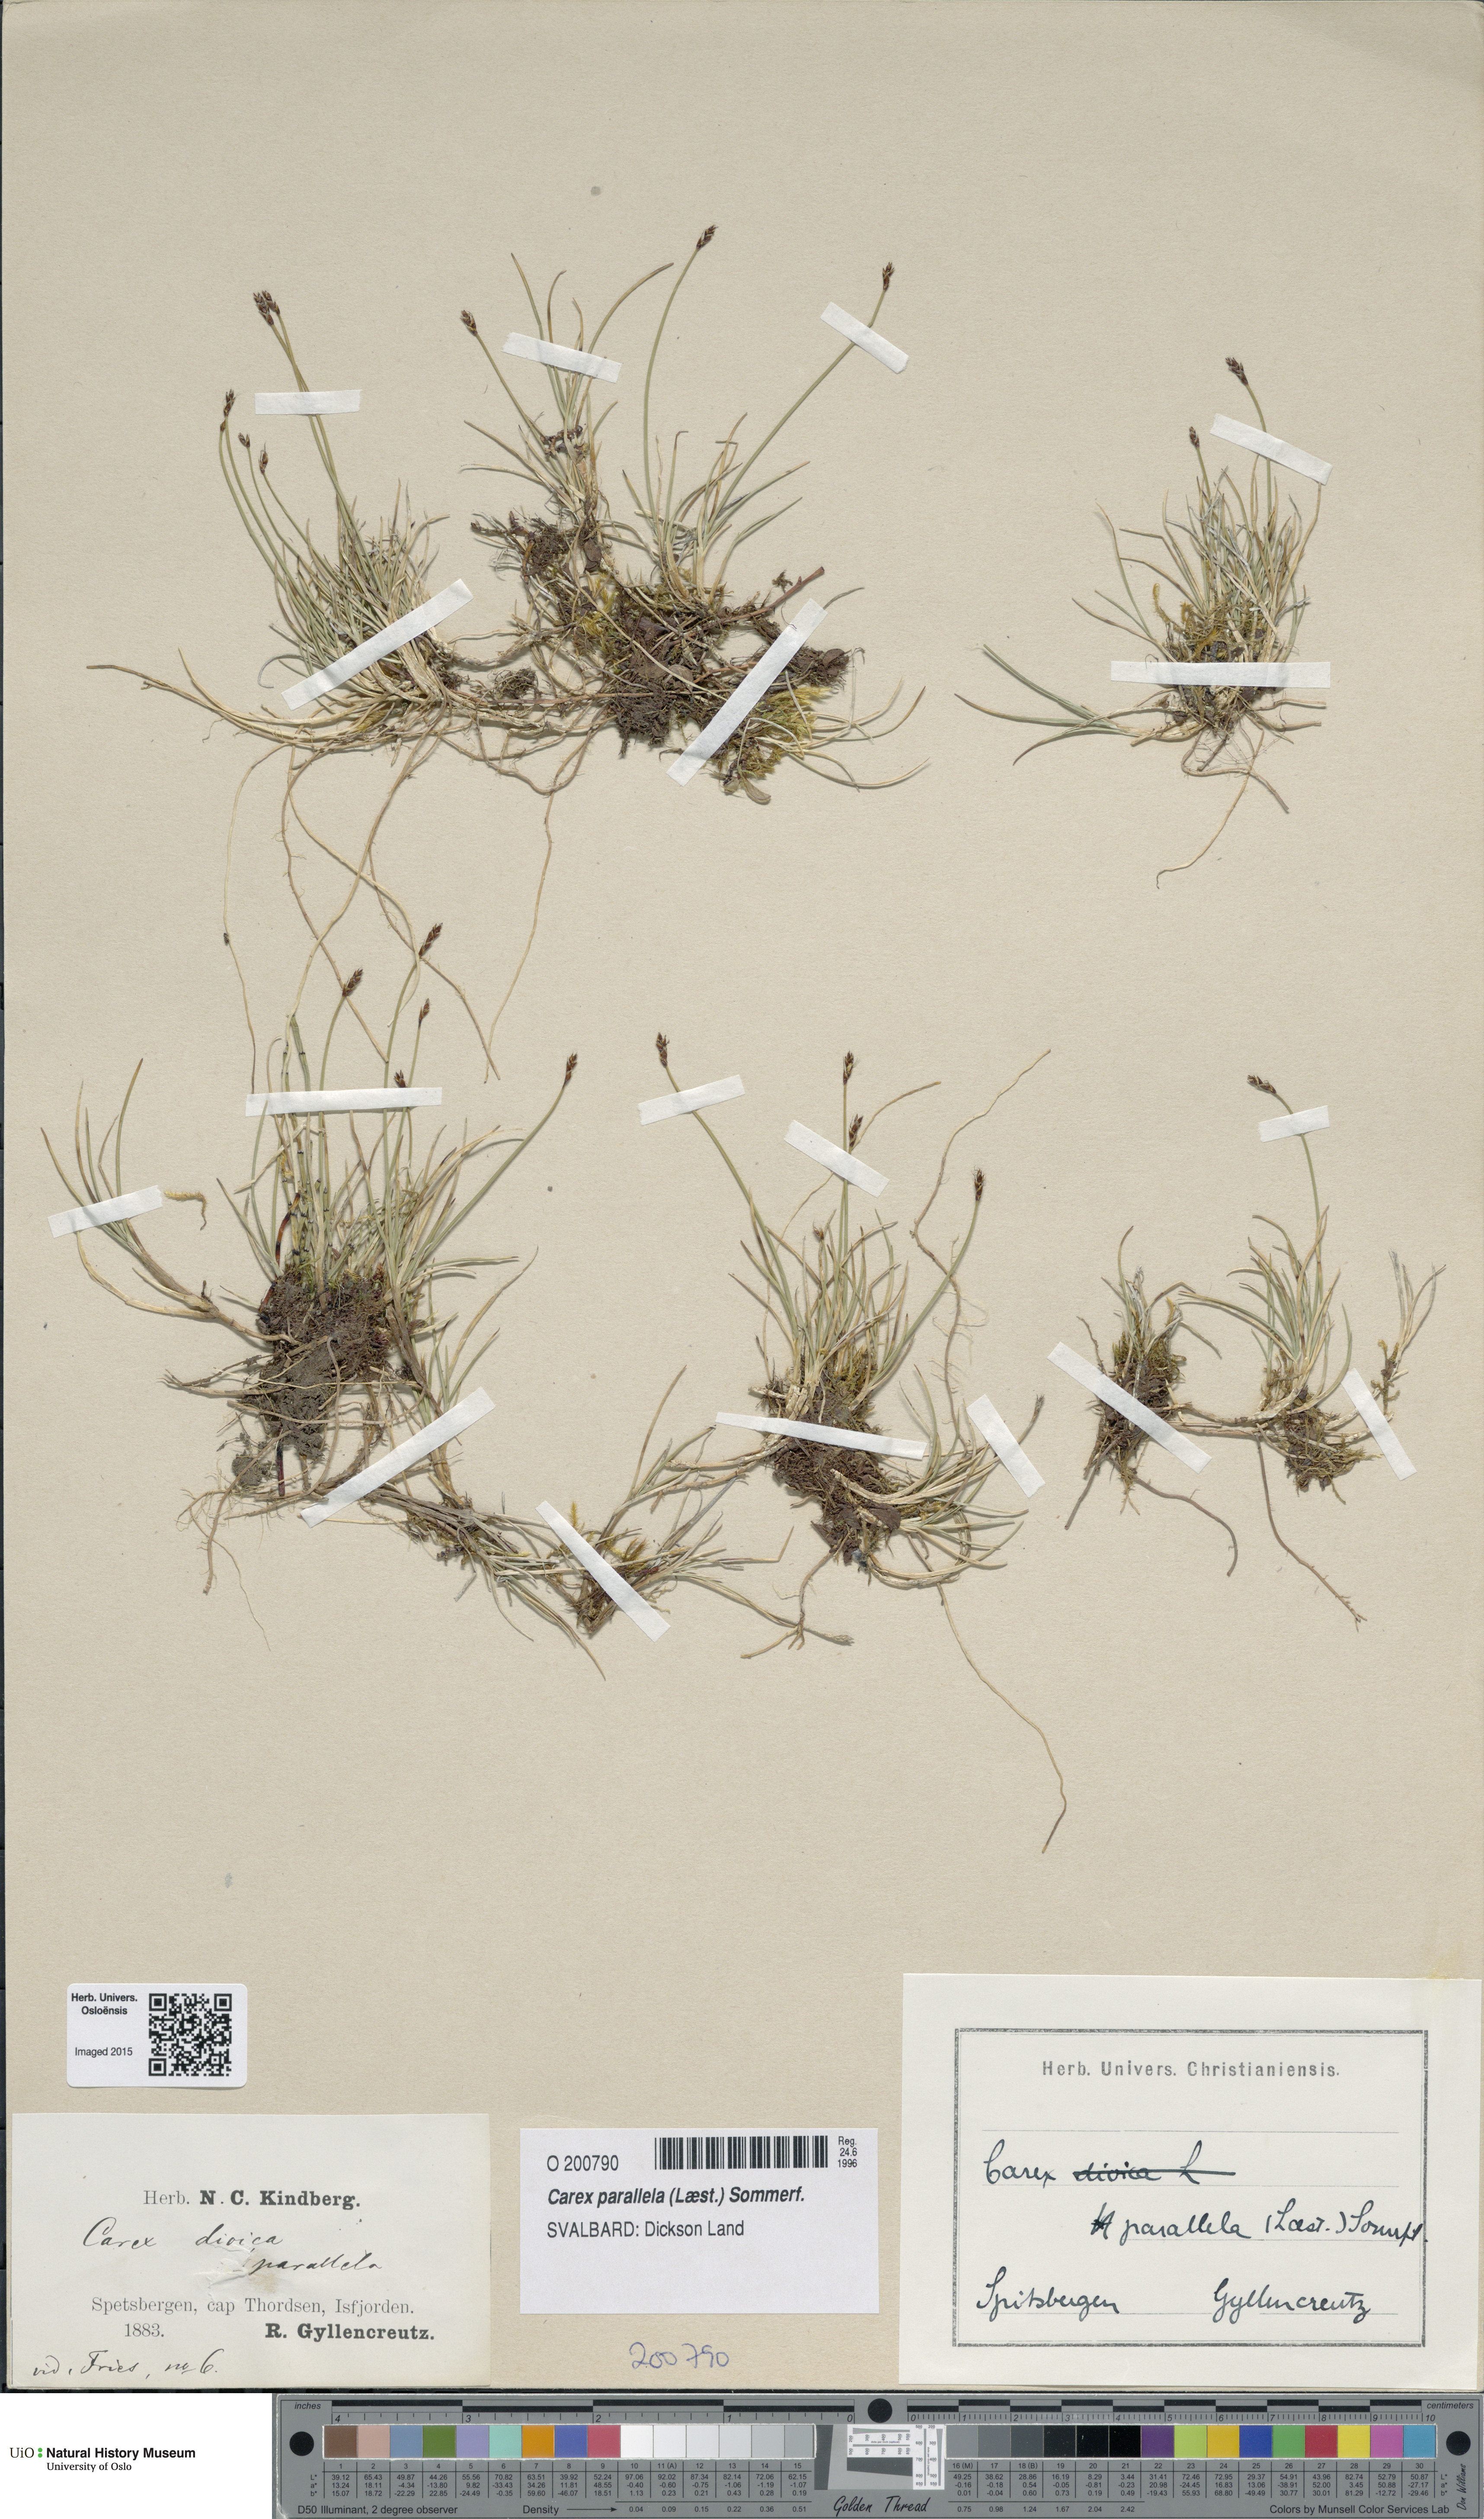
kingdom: Plantae
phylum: Tracheophyta
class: Liliopsida
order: Poales
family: Cyperaceae
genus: Carex
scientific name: Carex parallela
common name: Parallel sedge
